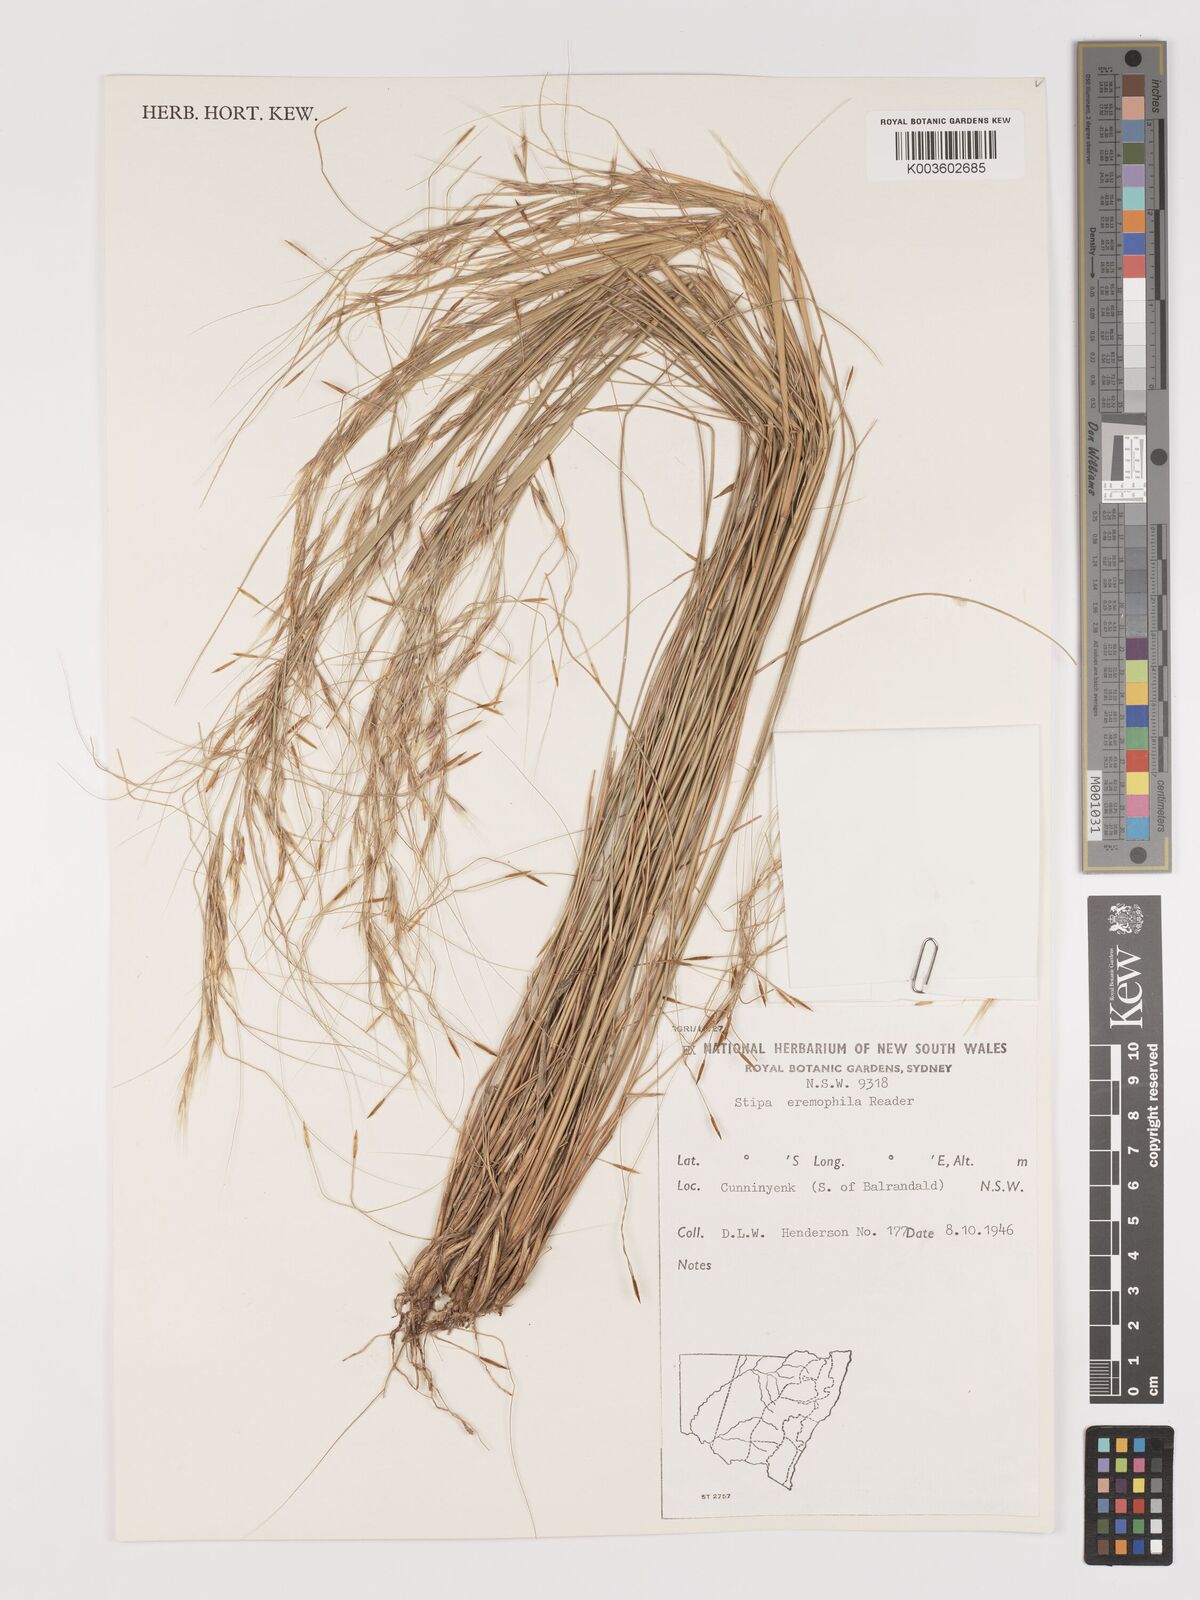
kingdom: Plantae
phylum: Tracheophyta
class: Liliopsida
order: Poales
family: Poaceae
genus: Austrostipa
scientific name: Austrostipa eremophila
